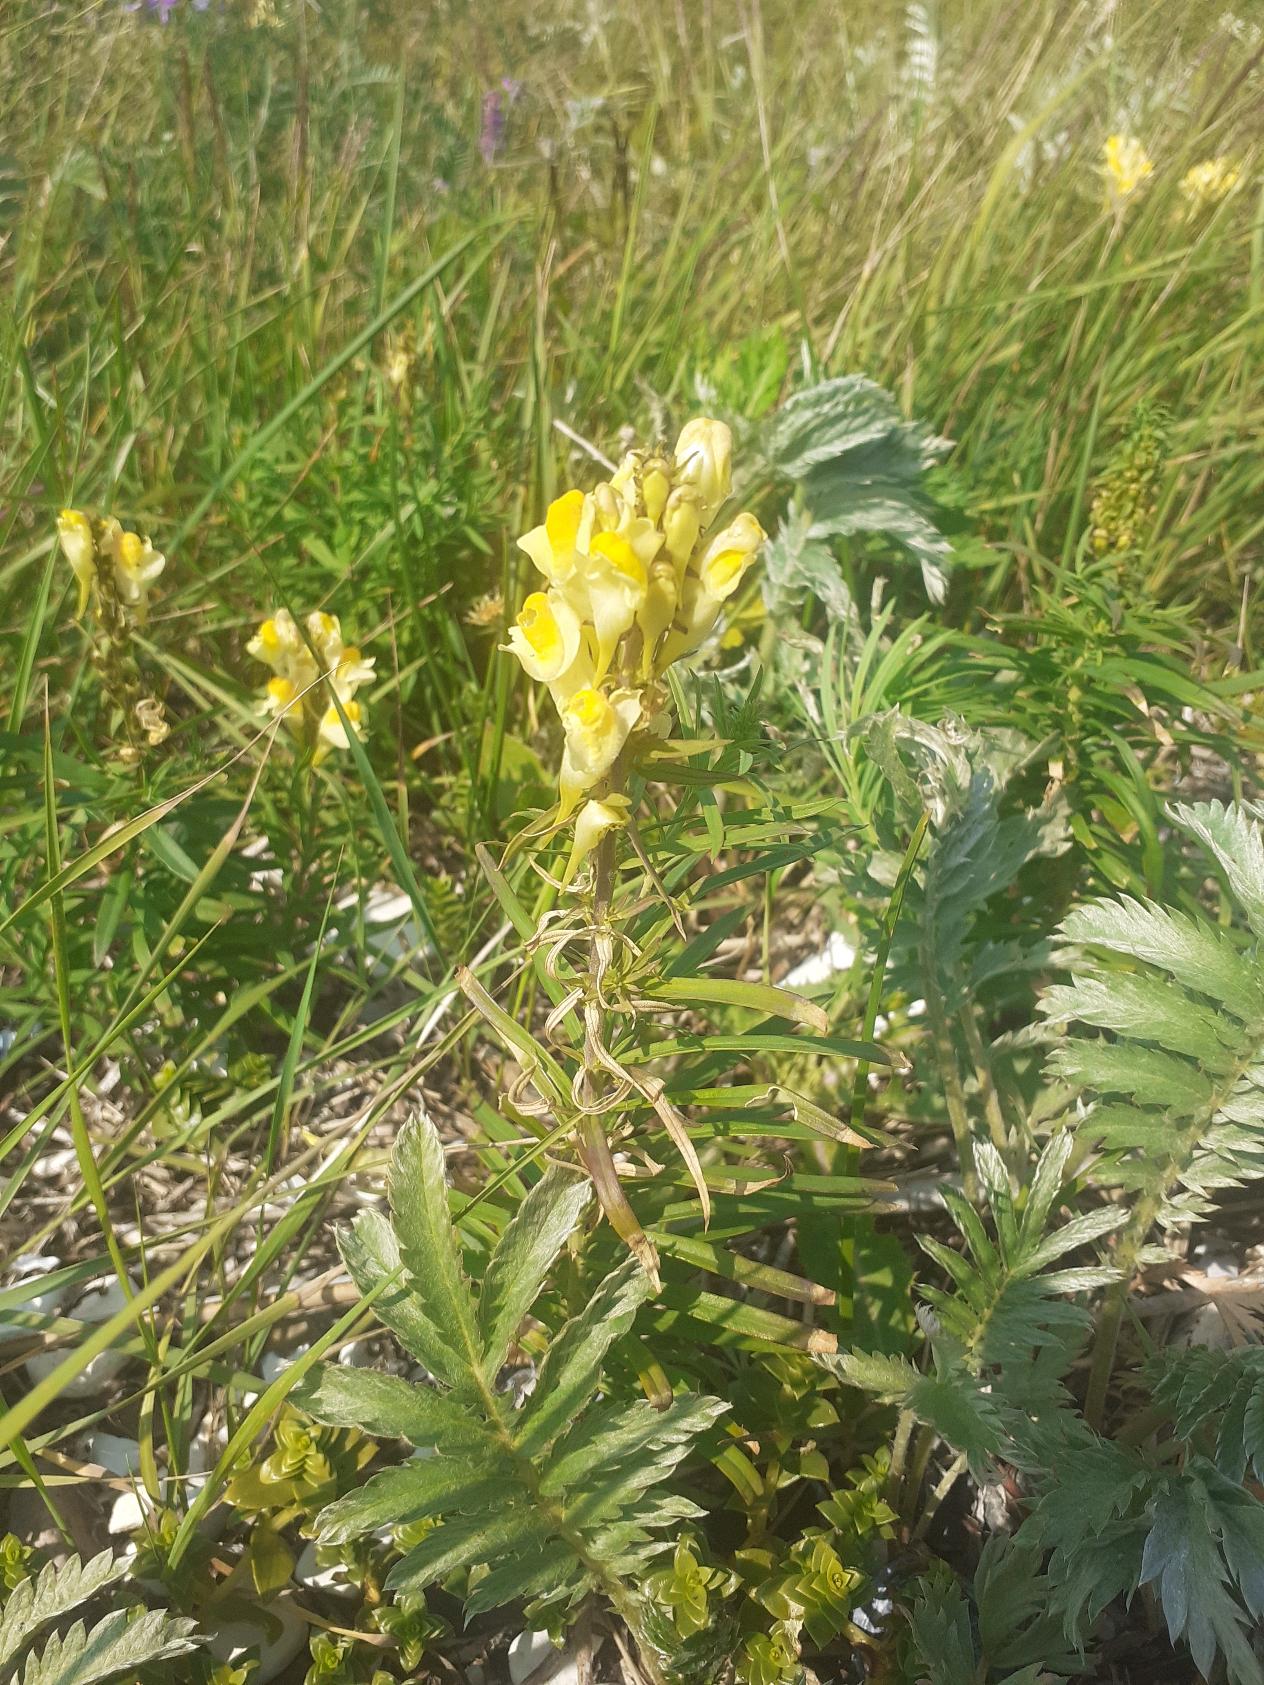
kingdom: Plantae
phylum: Tracheophyta
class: Magnoliopsida
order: Lamiales
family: Plantaginaceae
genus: Linaria
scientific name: Linaria vulgaris
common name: Almindelig torskemund
